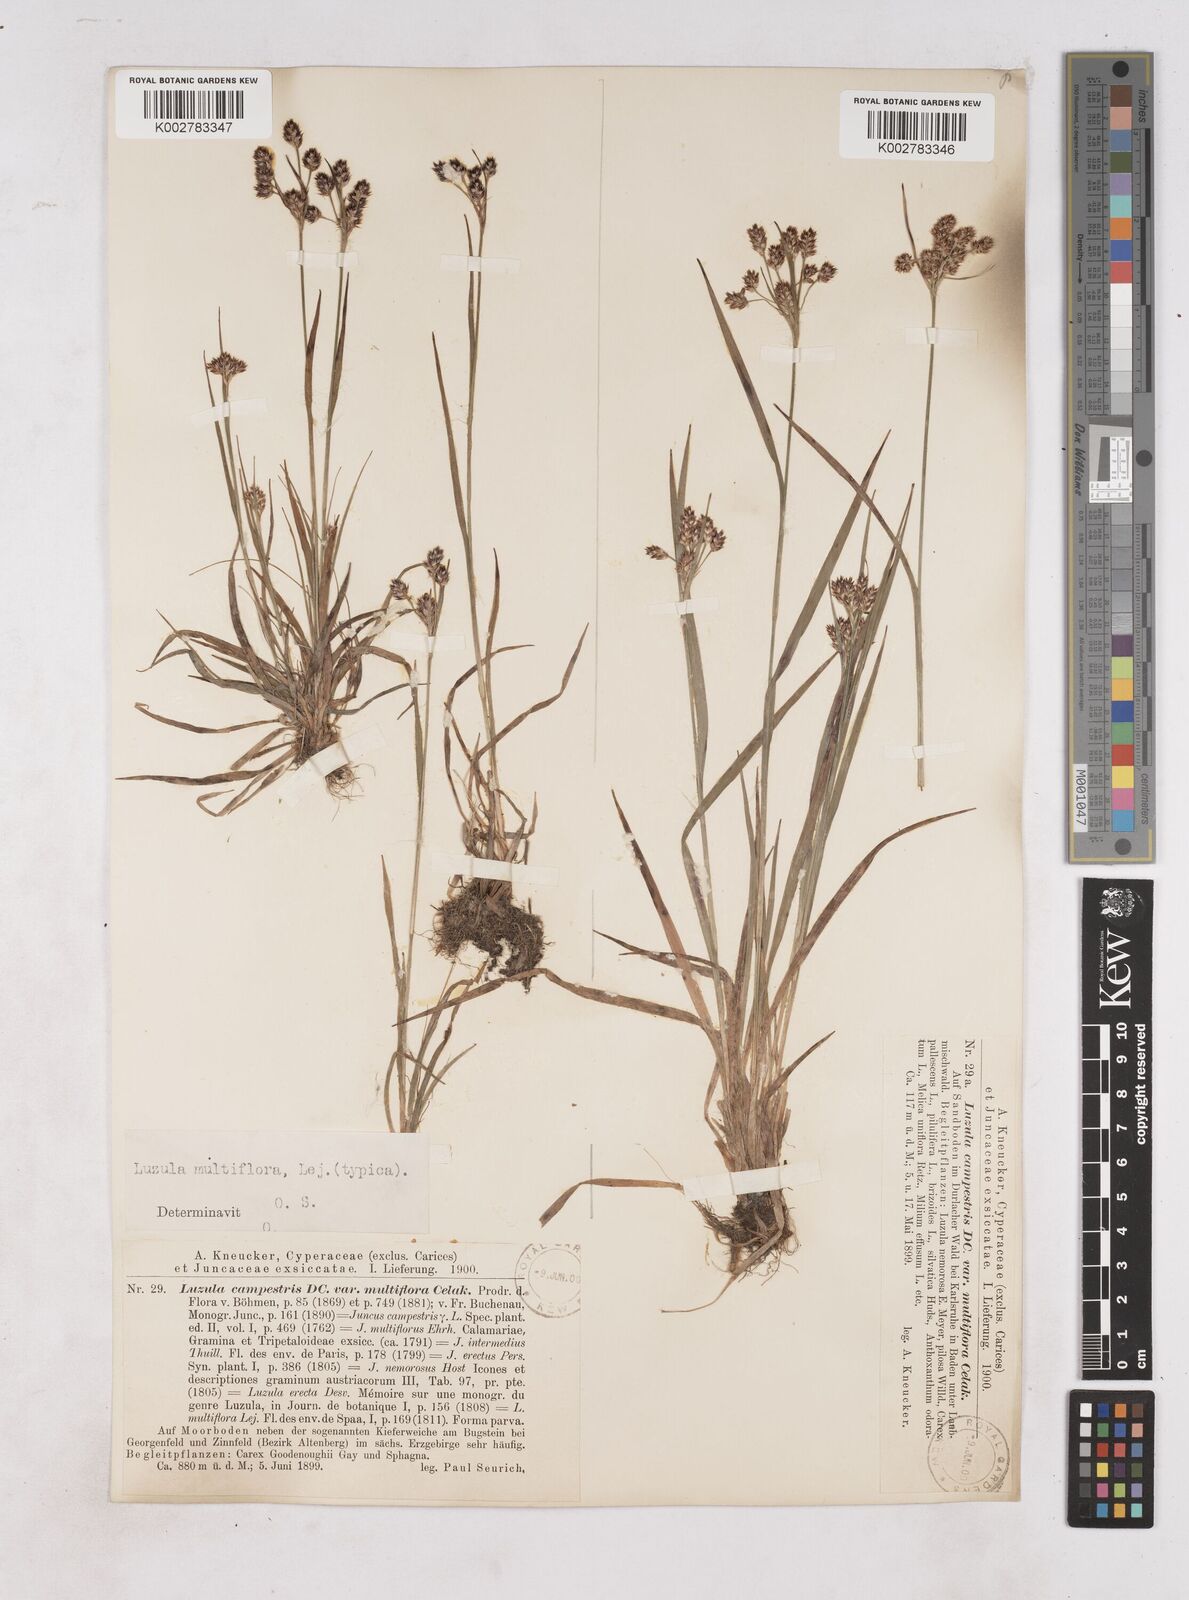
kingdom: Plantae
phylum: Tracheophyta
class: Liliopsida
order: Poales
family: Juncaceae
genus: Luzula
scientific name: Luzula multiflora
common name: Heath wood-rush
